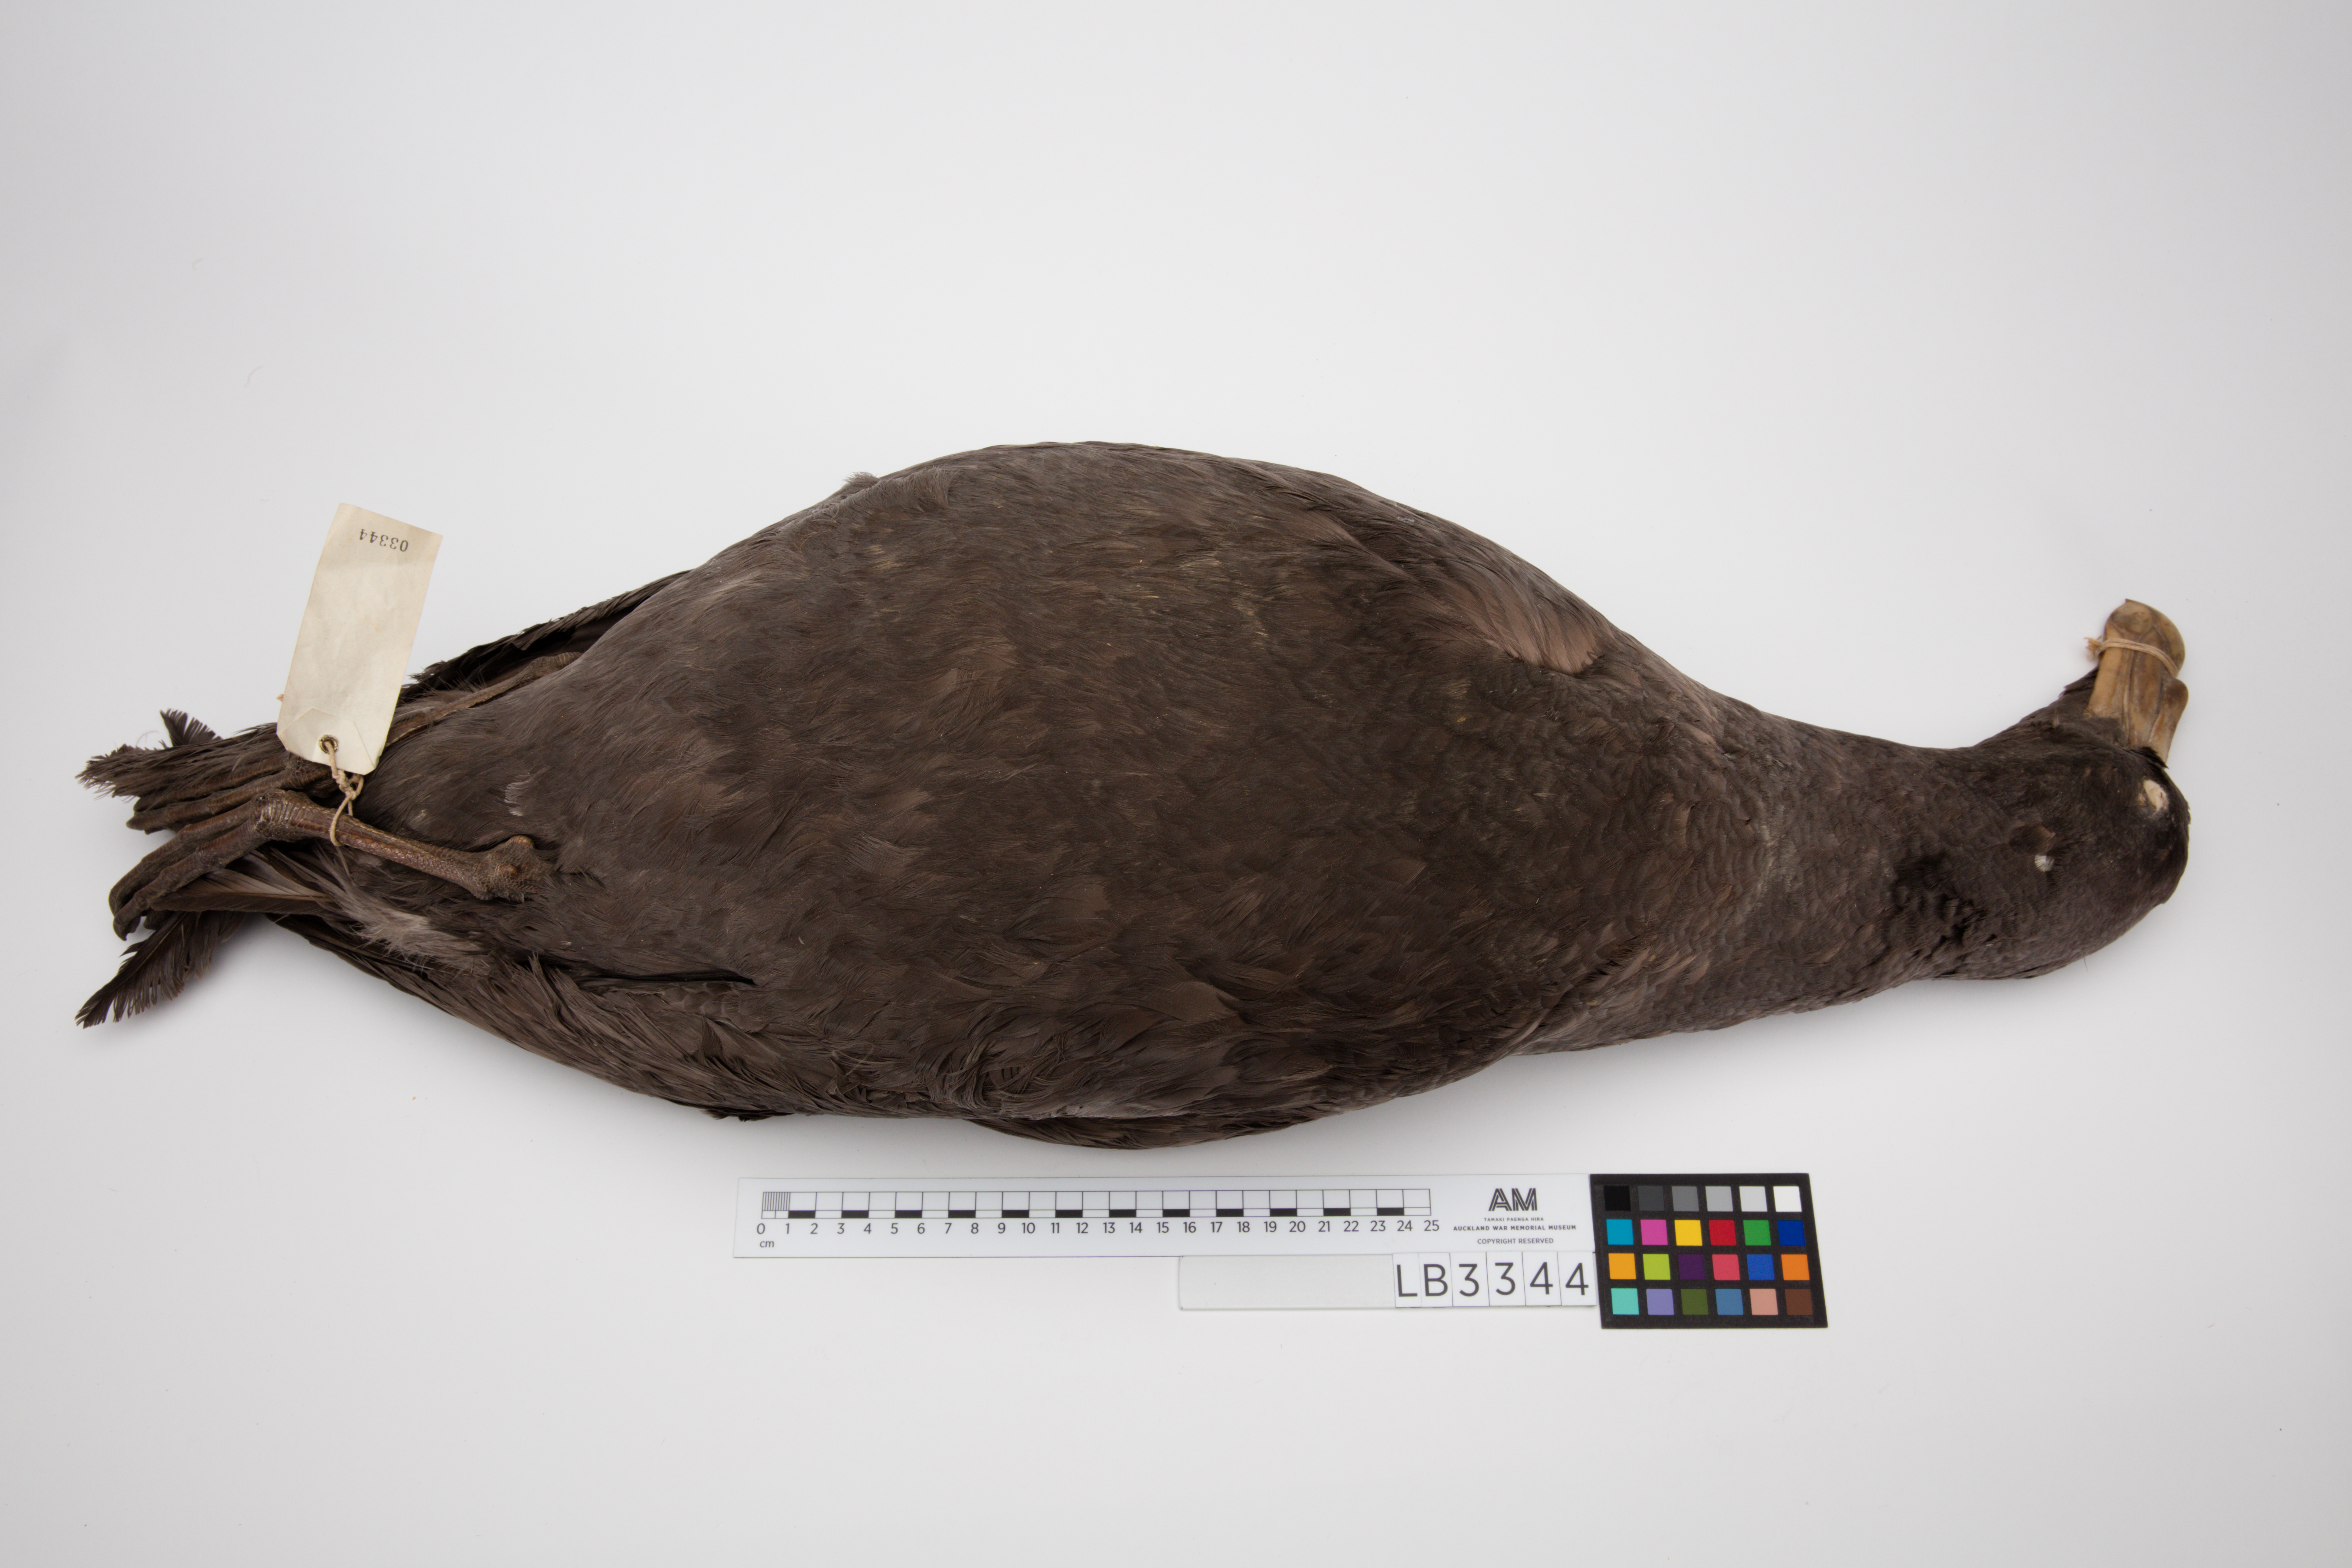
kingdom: Animalia
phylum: Chordata
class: Aves
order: Procellariiformes
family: Procellariidae
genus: Macronectes
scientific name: Macronectes giganteus
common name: Southern giant petrel
